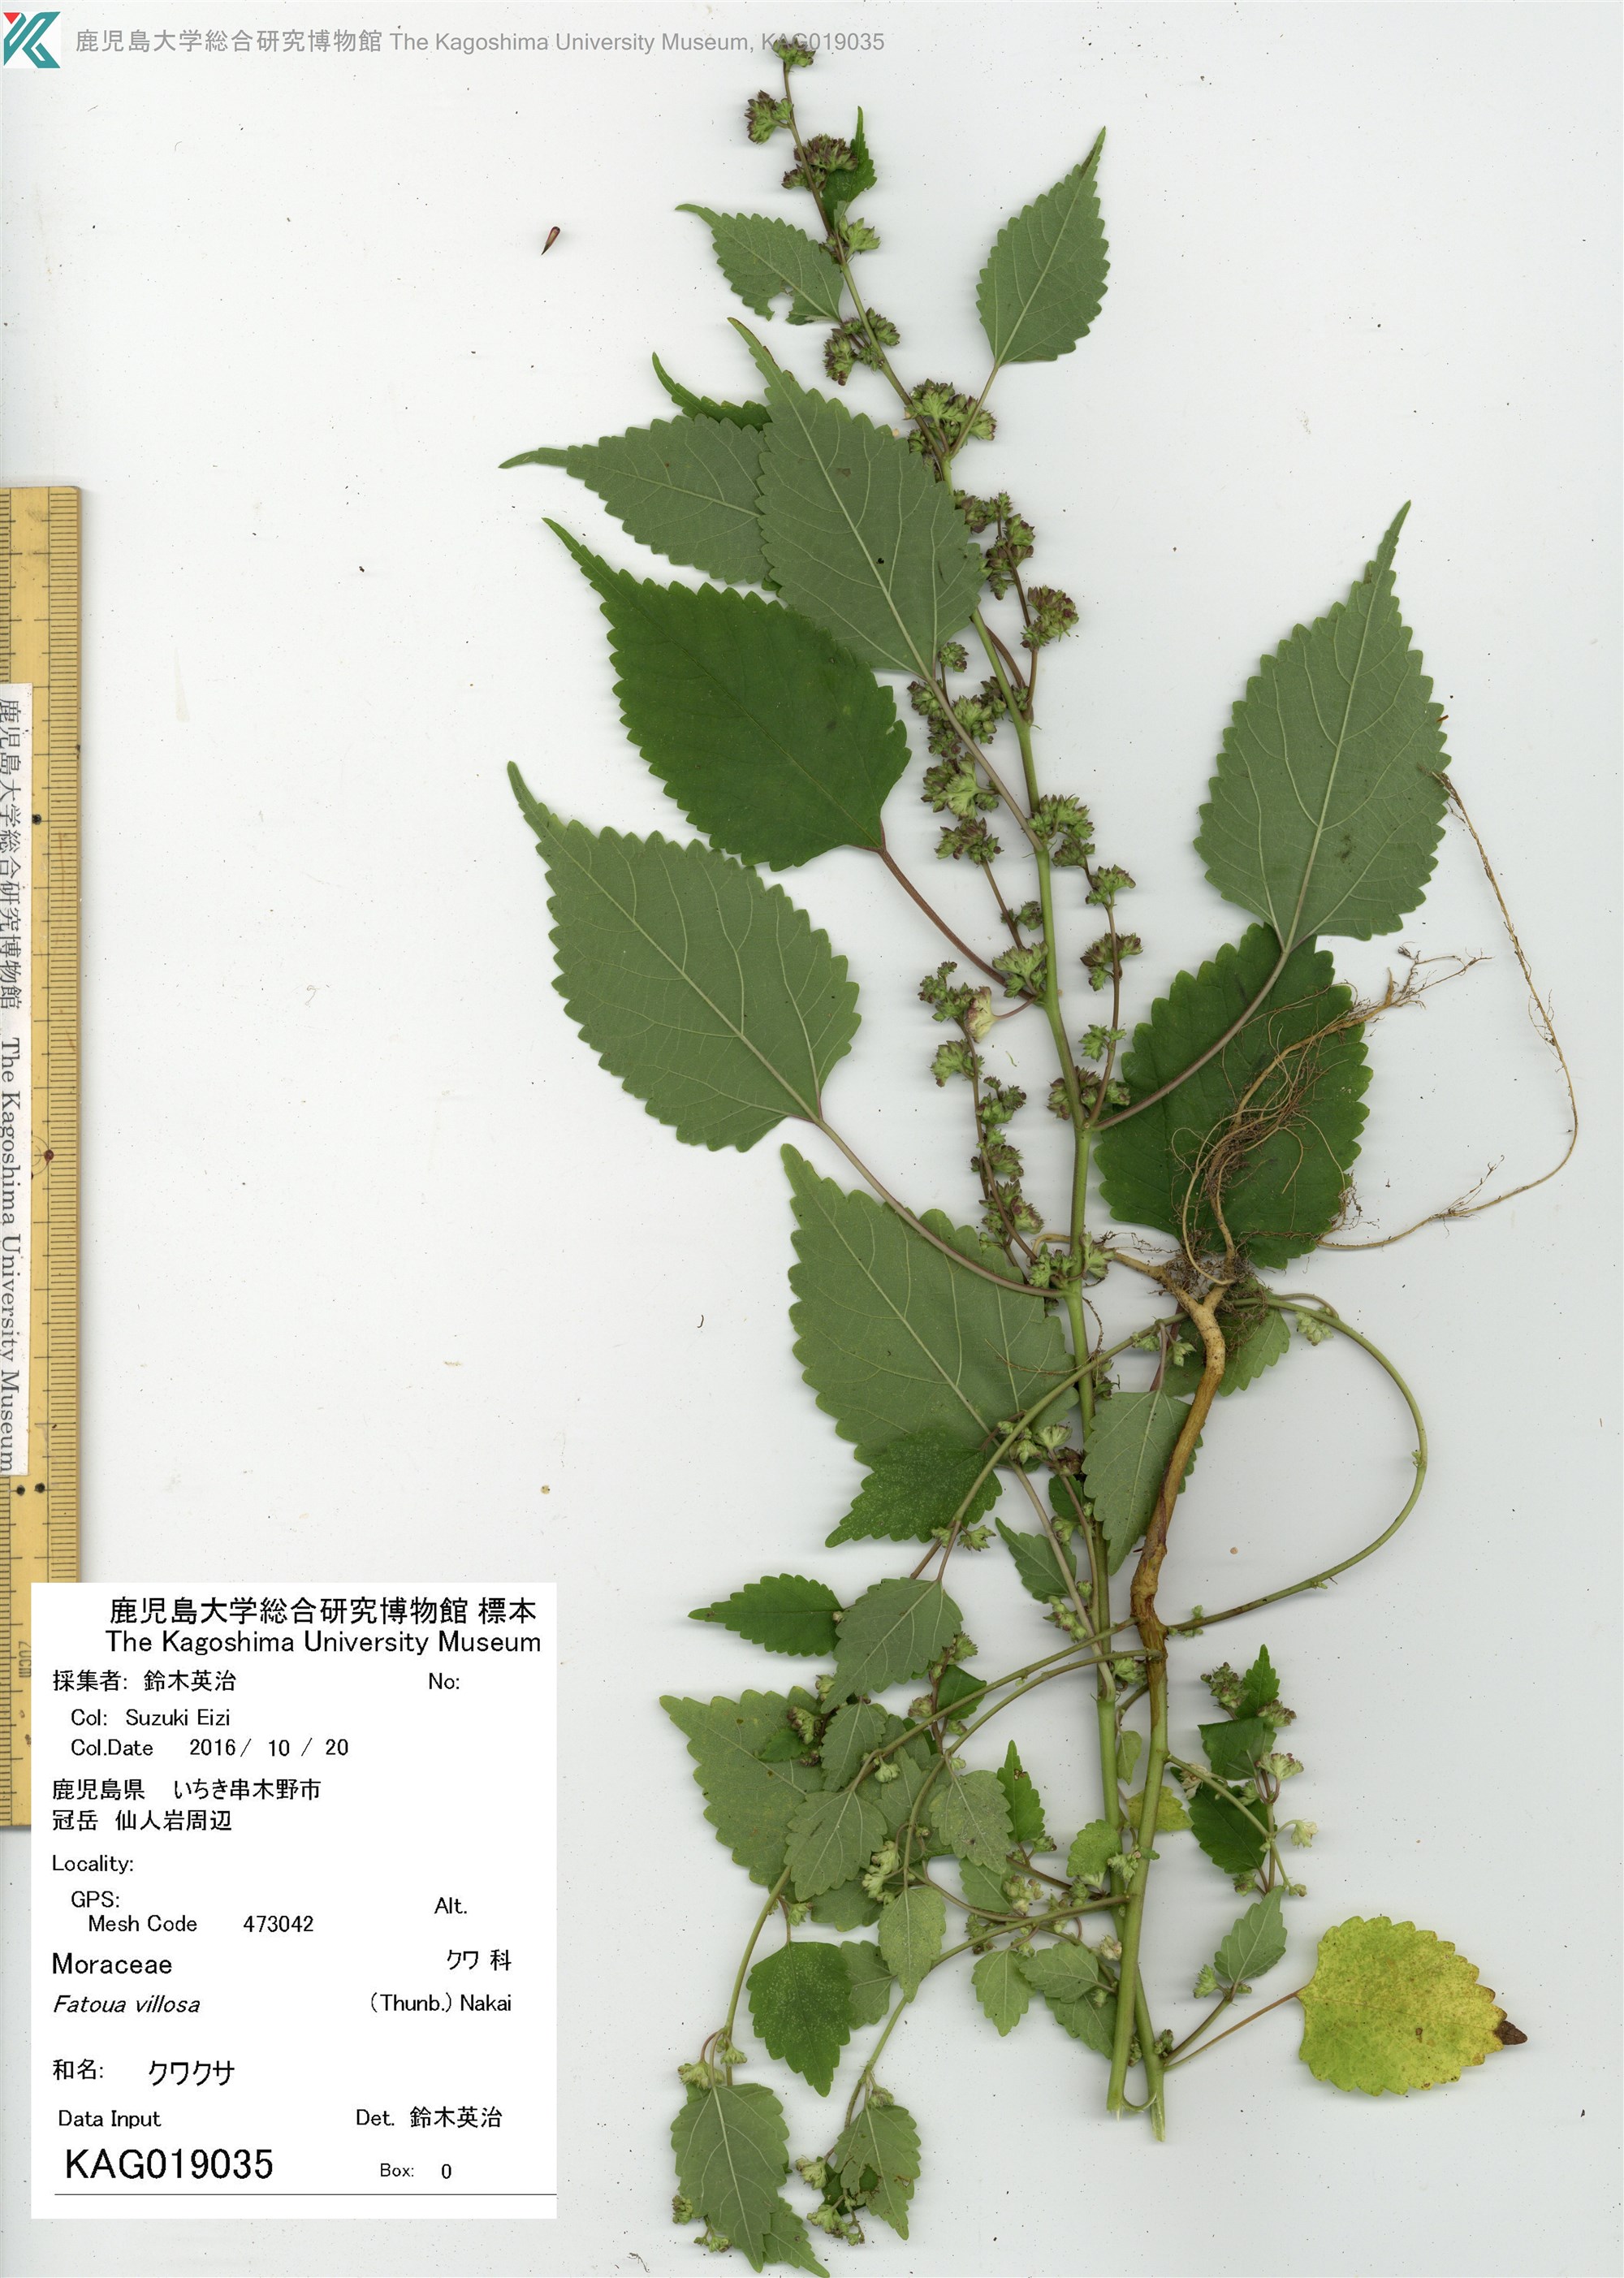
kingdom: Plantae
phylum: Tracheophyta
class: Magnoliopsida
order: Rosales
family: Moraceae
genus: Fatoua
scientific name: Fatoua villosa
